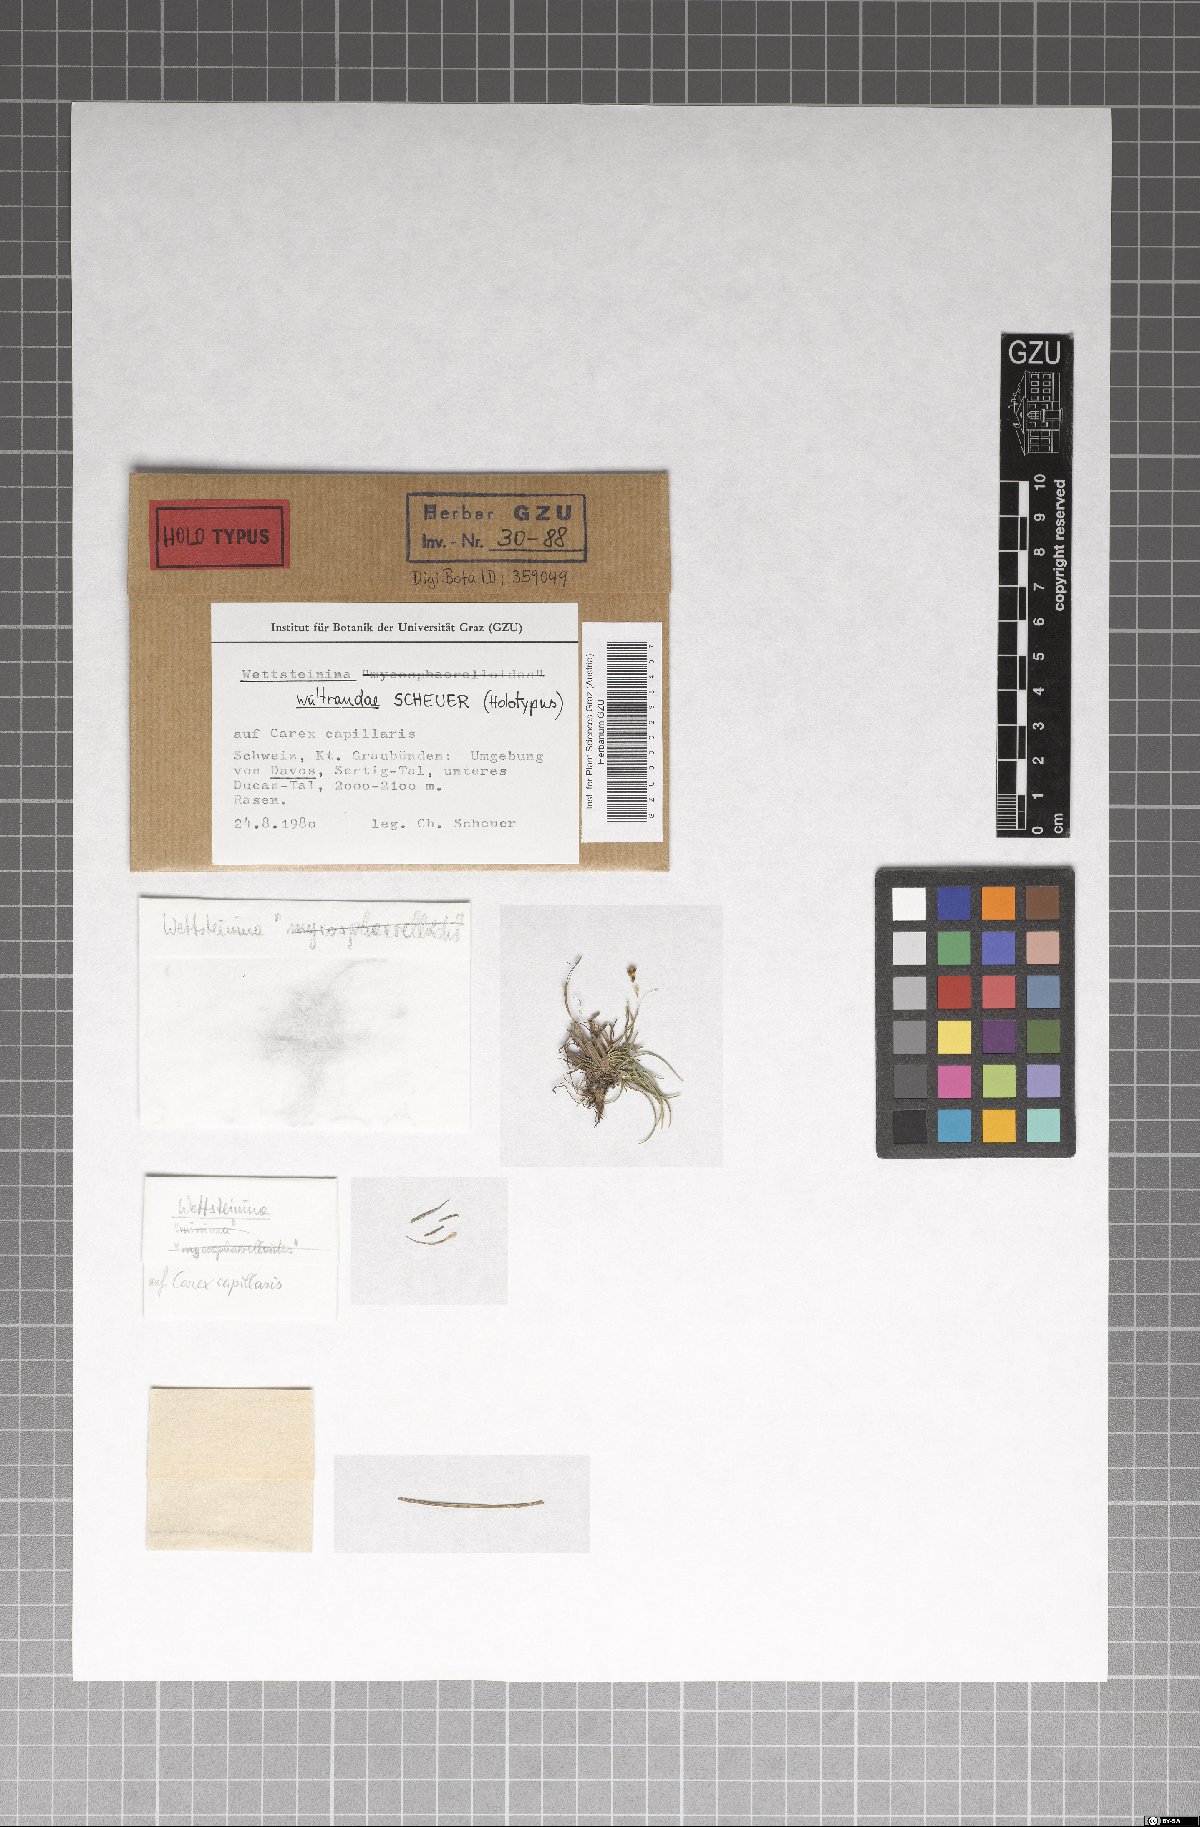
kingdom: Fungi
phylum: Ascomycota
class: Dothideomycetes
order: Pleosporales
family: Pleosporaceae
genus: Wettsteinina
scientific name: Wettsteinina waltraudiae
